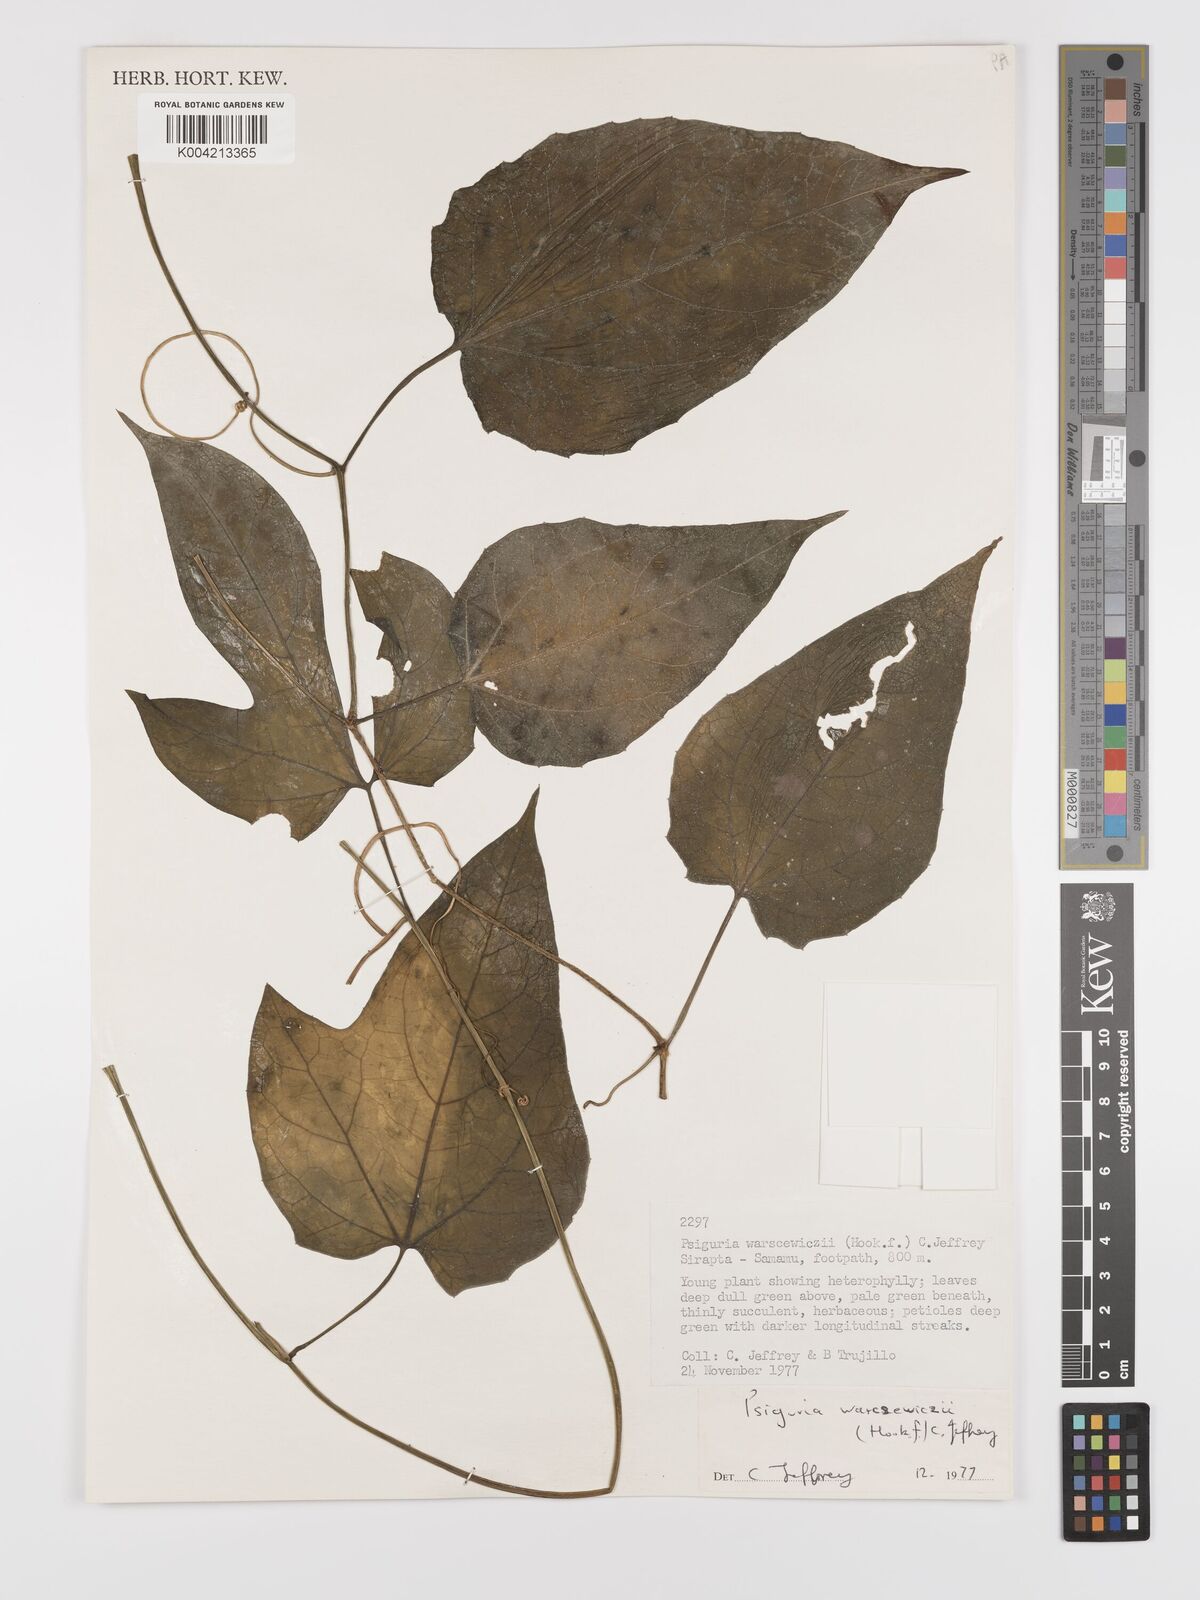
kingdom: Plantae
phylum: Tracheophyta
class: Magnoliopsida
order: Cucurbitales
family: Cucurbitaceae
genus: Psiguria
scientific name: Psiguria warscewiczii
